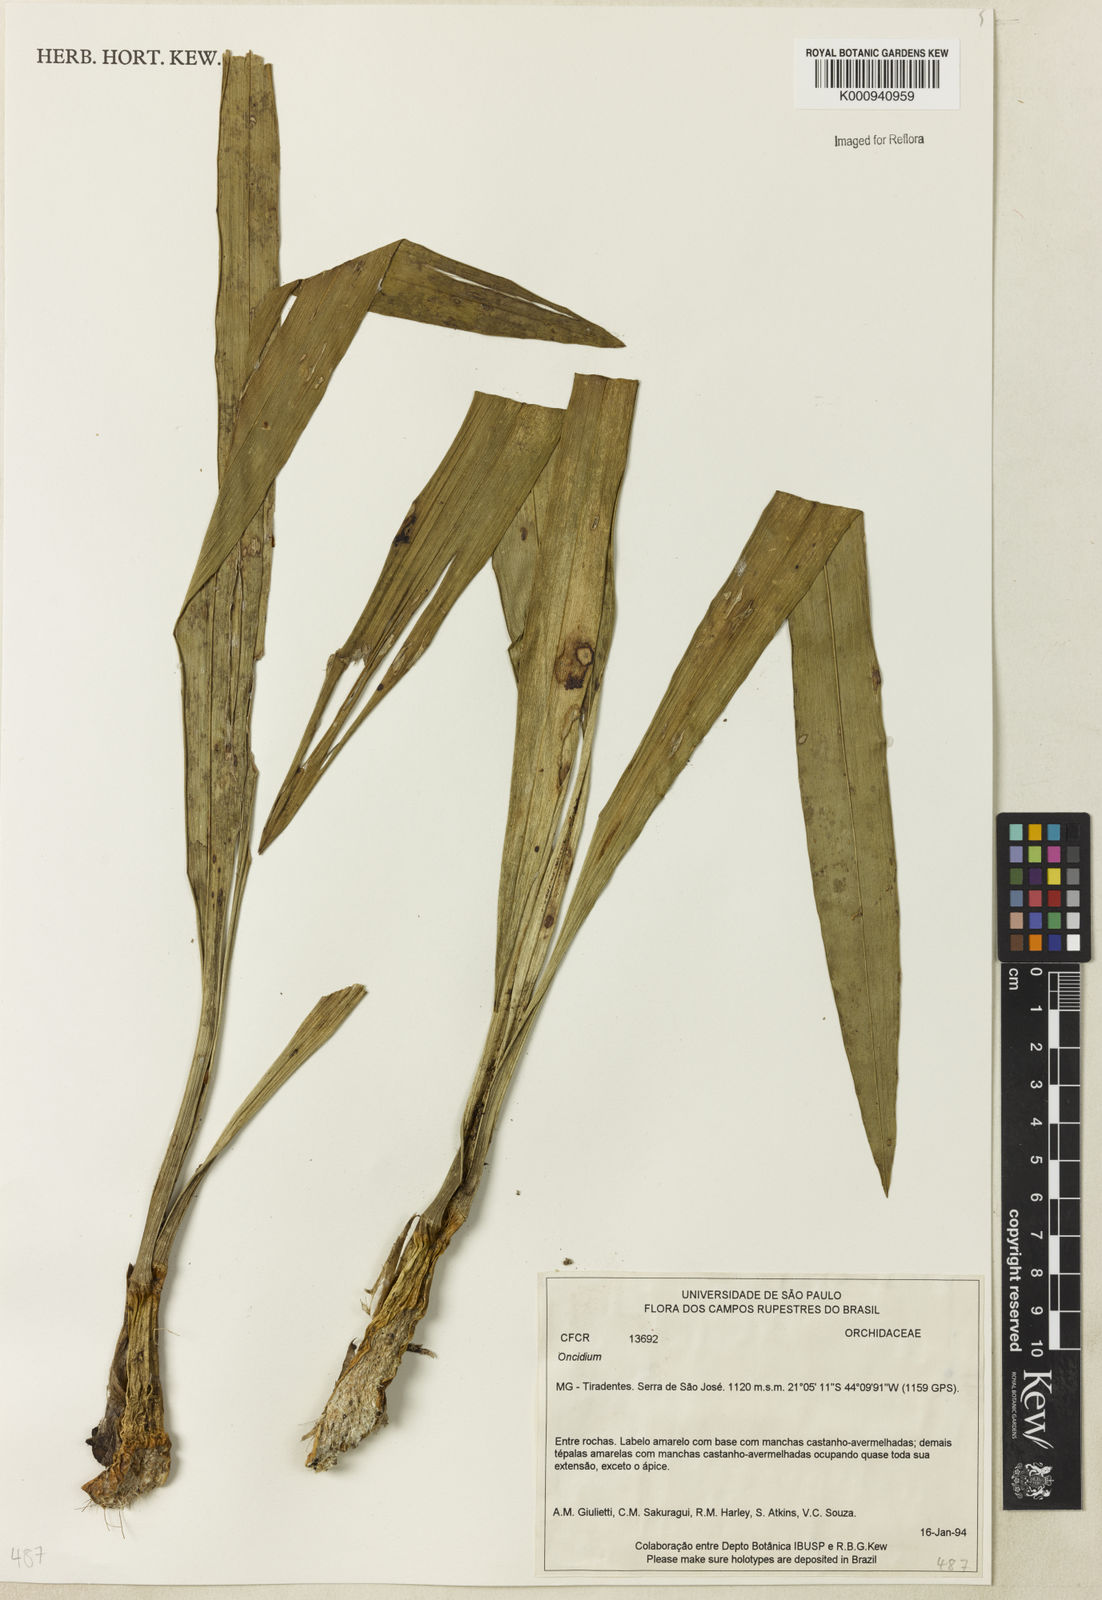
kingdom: Plantae
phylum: Tracheophyta
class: Liliopsida
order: Asparagales
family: Orchidaceae
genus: Oncidium
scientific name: Oncidium
